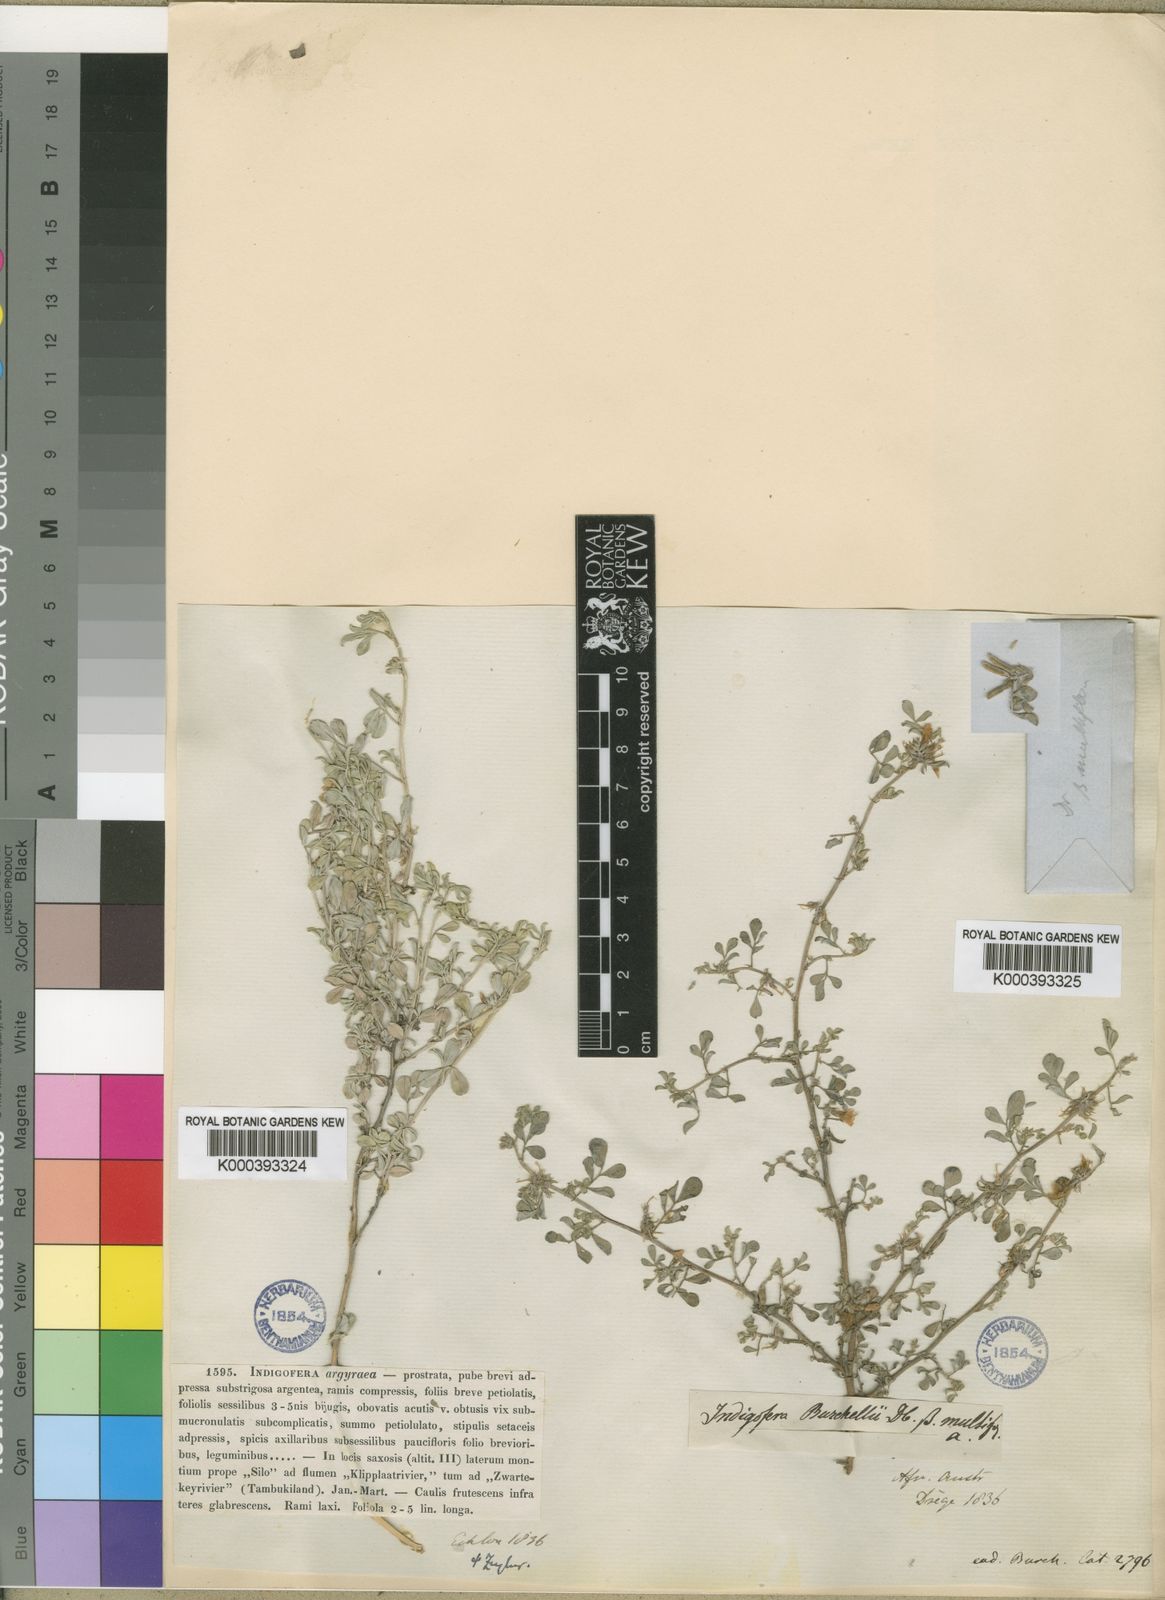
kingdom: Plantae
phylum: Tracheophyta
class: Magnoliopsida
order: Fabales
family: Fabaceae
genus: Indigastrum
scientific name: Indigastrum niveum
